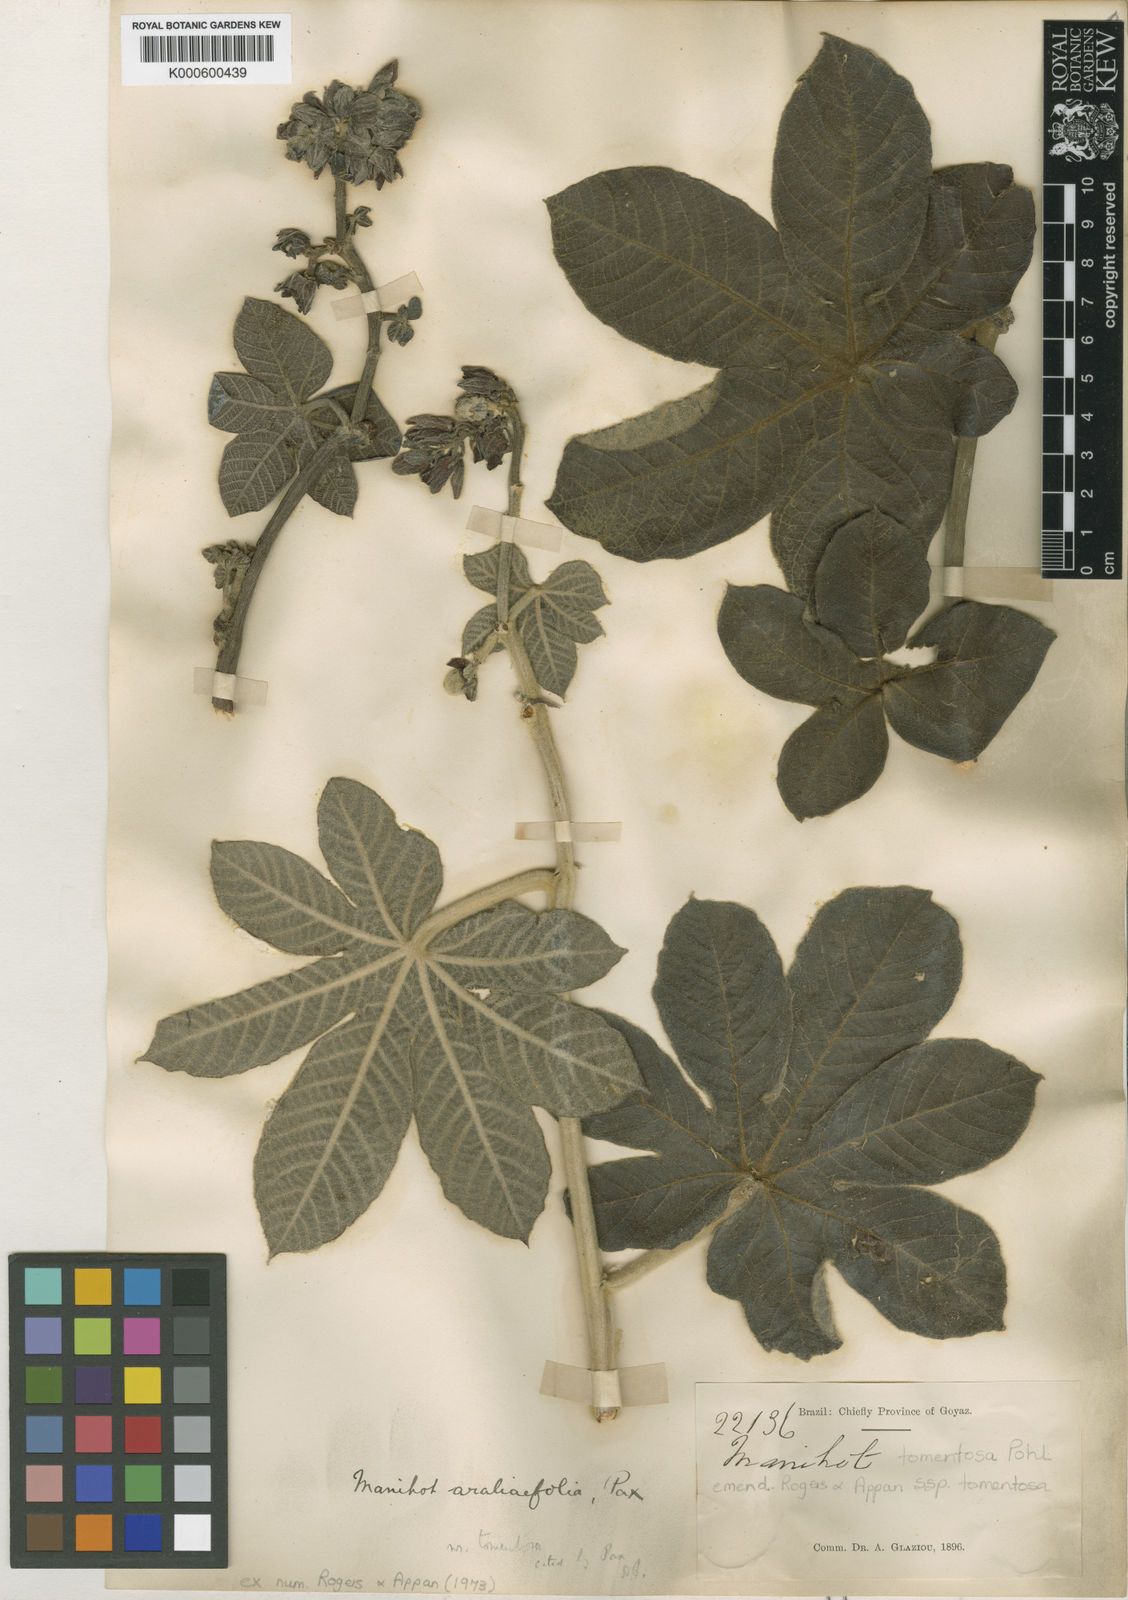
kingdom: Plantae
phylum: Tracheophyta
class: Magnoliopsida
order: Malpighiales
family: Euphorbiaceae
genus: Manihot
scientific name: Manihot tomentosa
